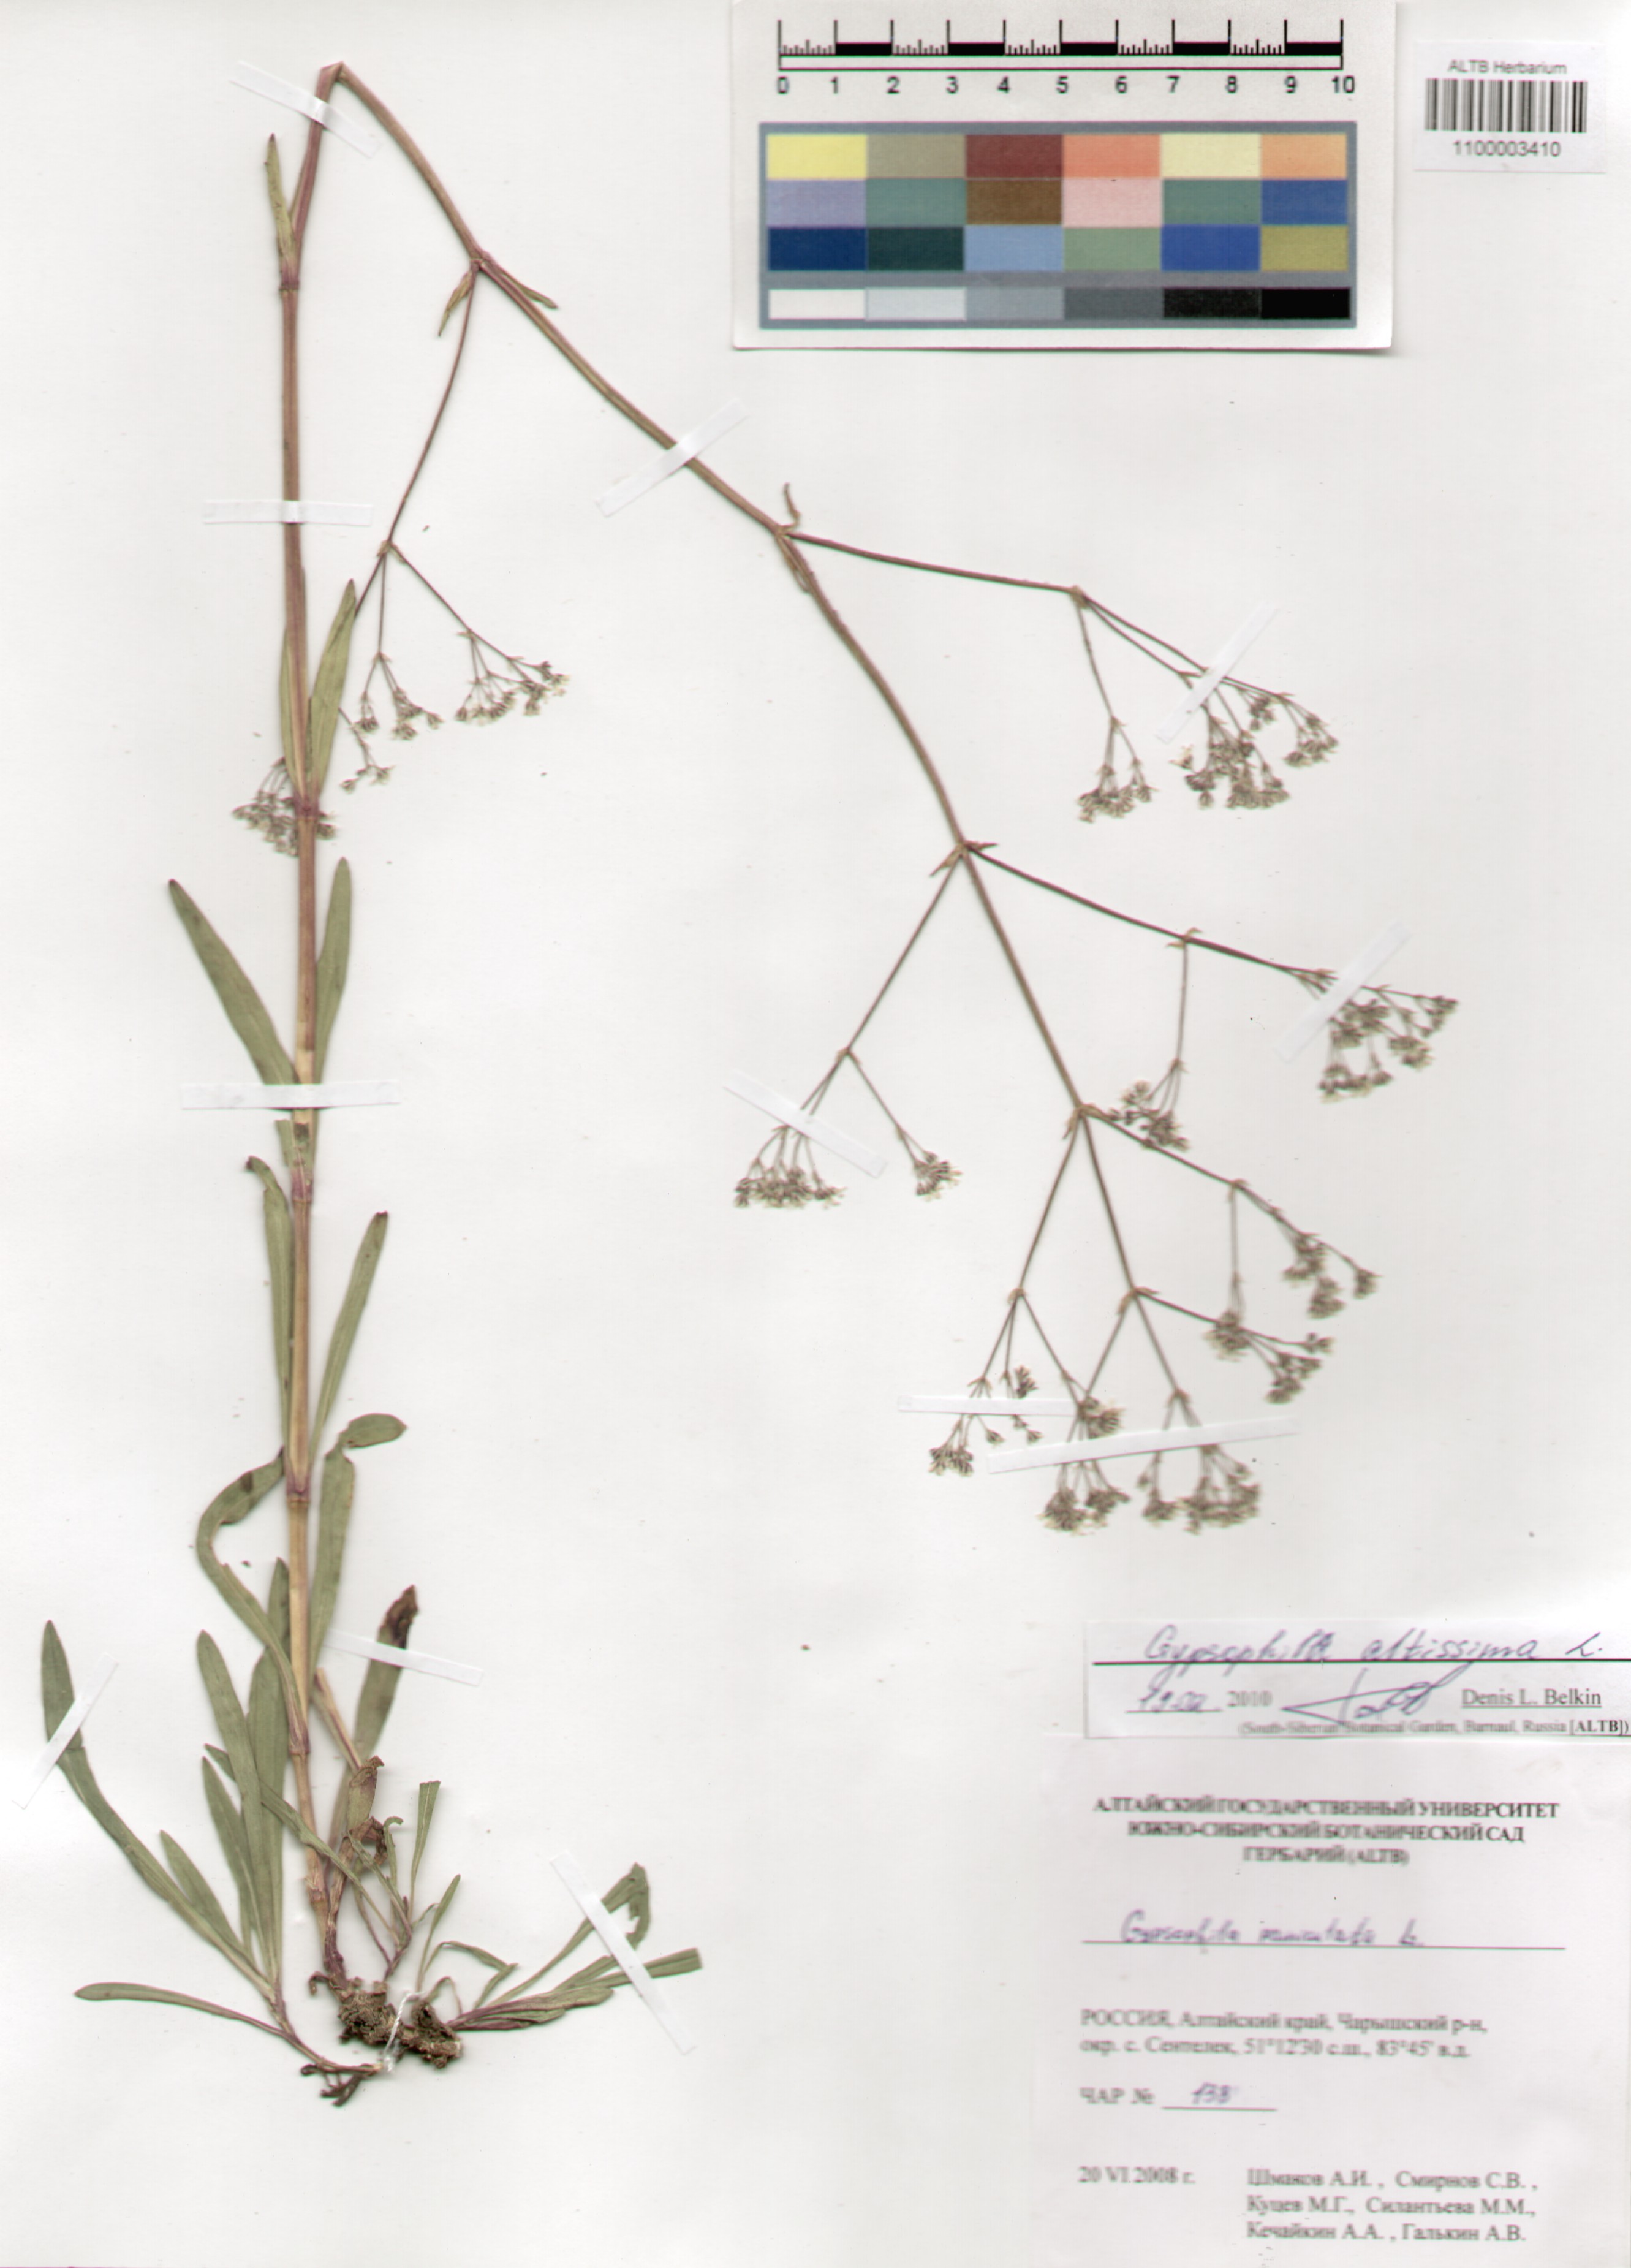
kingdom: Plantae
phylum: Tracheophyta
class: Magnoliopsida
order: Caryophyllales
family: Caryophyllaceae
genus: Gypsophila
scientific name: Gypsophila altissima
